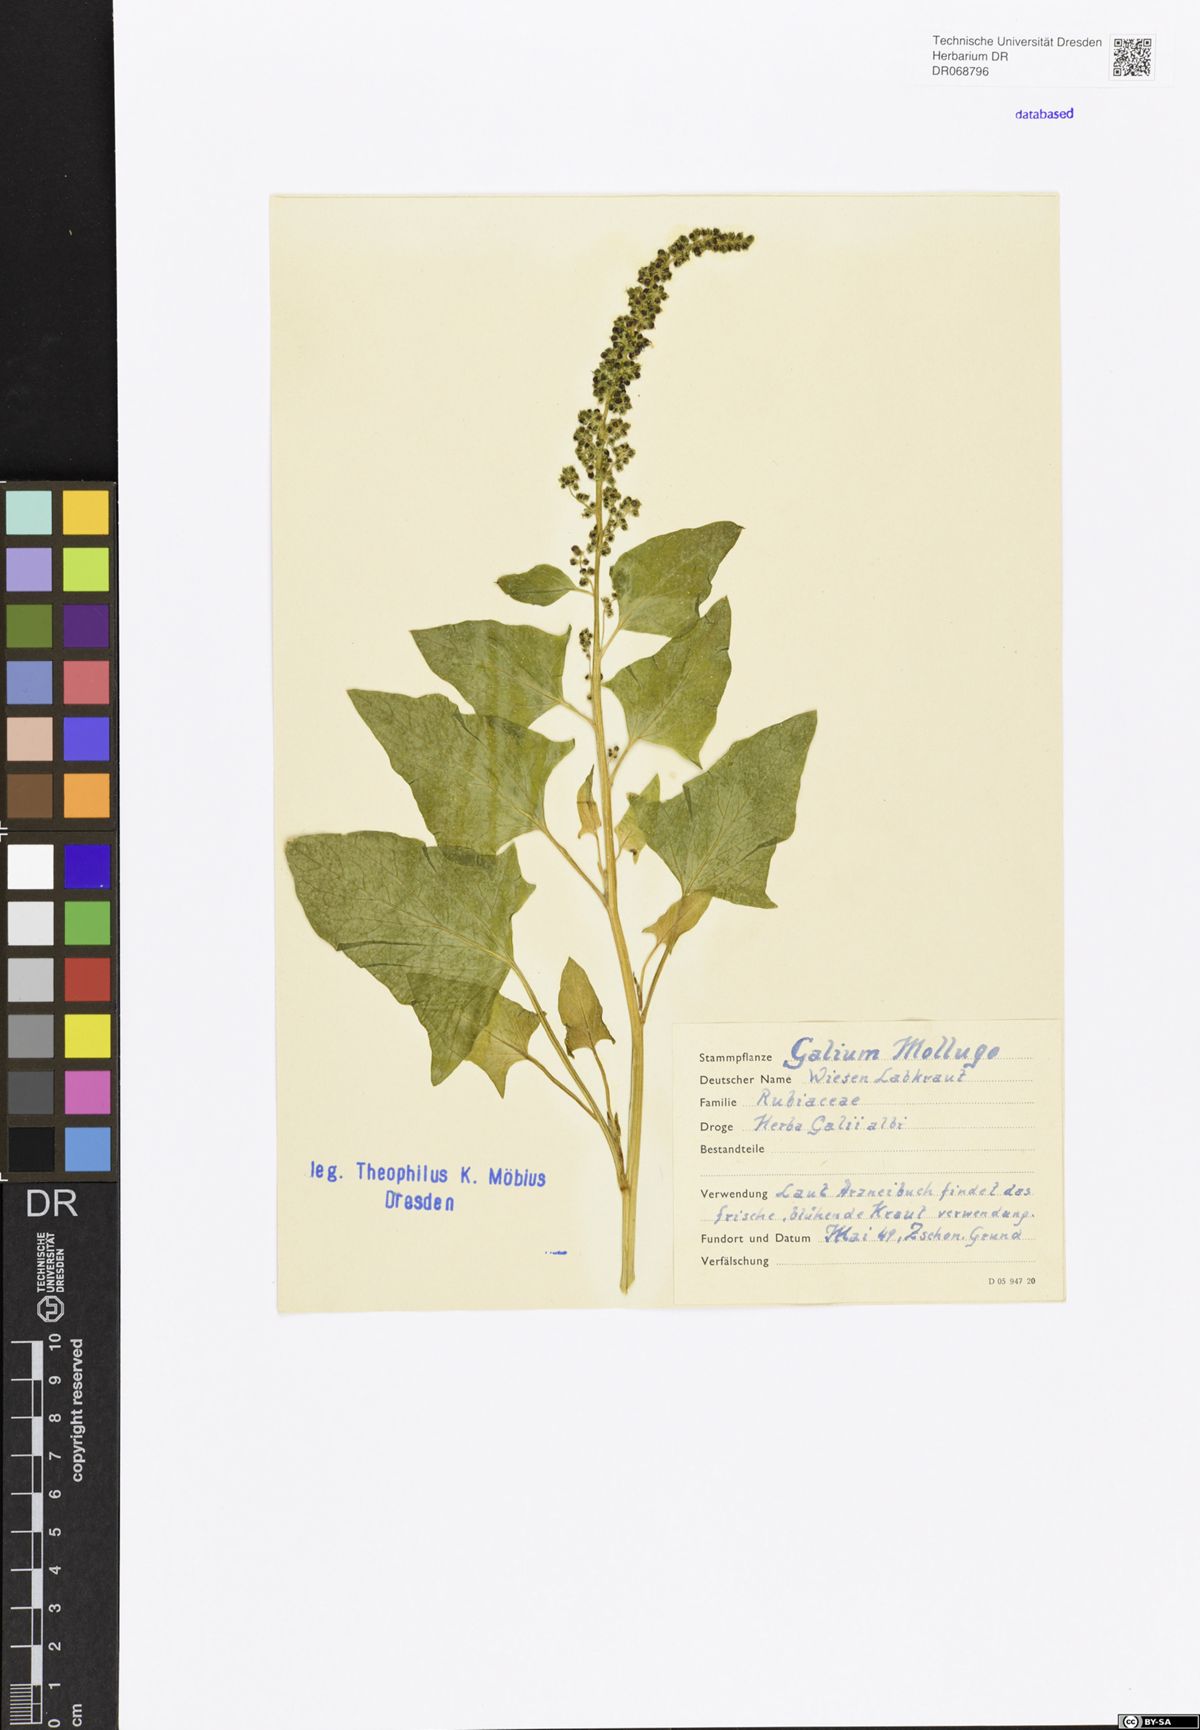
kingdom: Plantae
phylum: Tracheophyta
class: Magnoliopsida
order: Gentianales
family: Rubiaceae
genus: Galium
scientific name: Galium mollugo
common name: Hedge bedstraw
